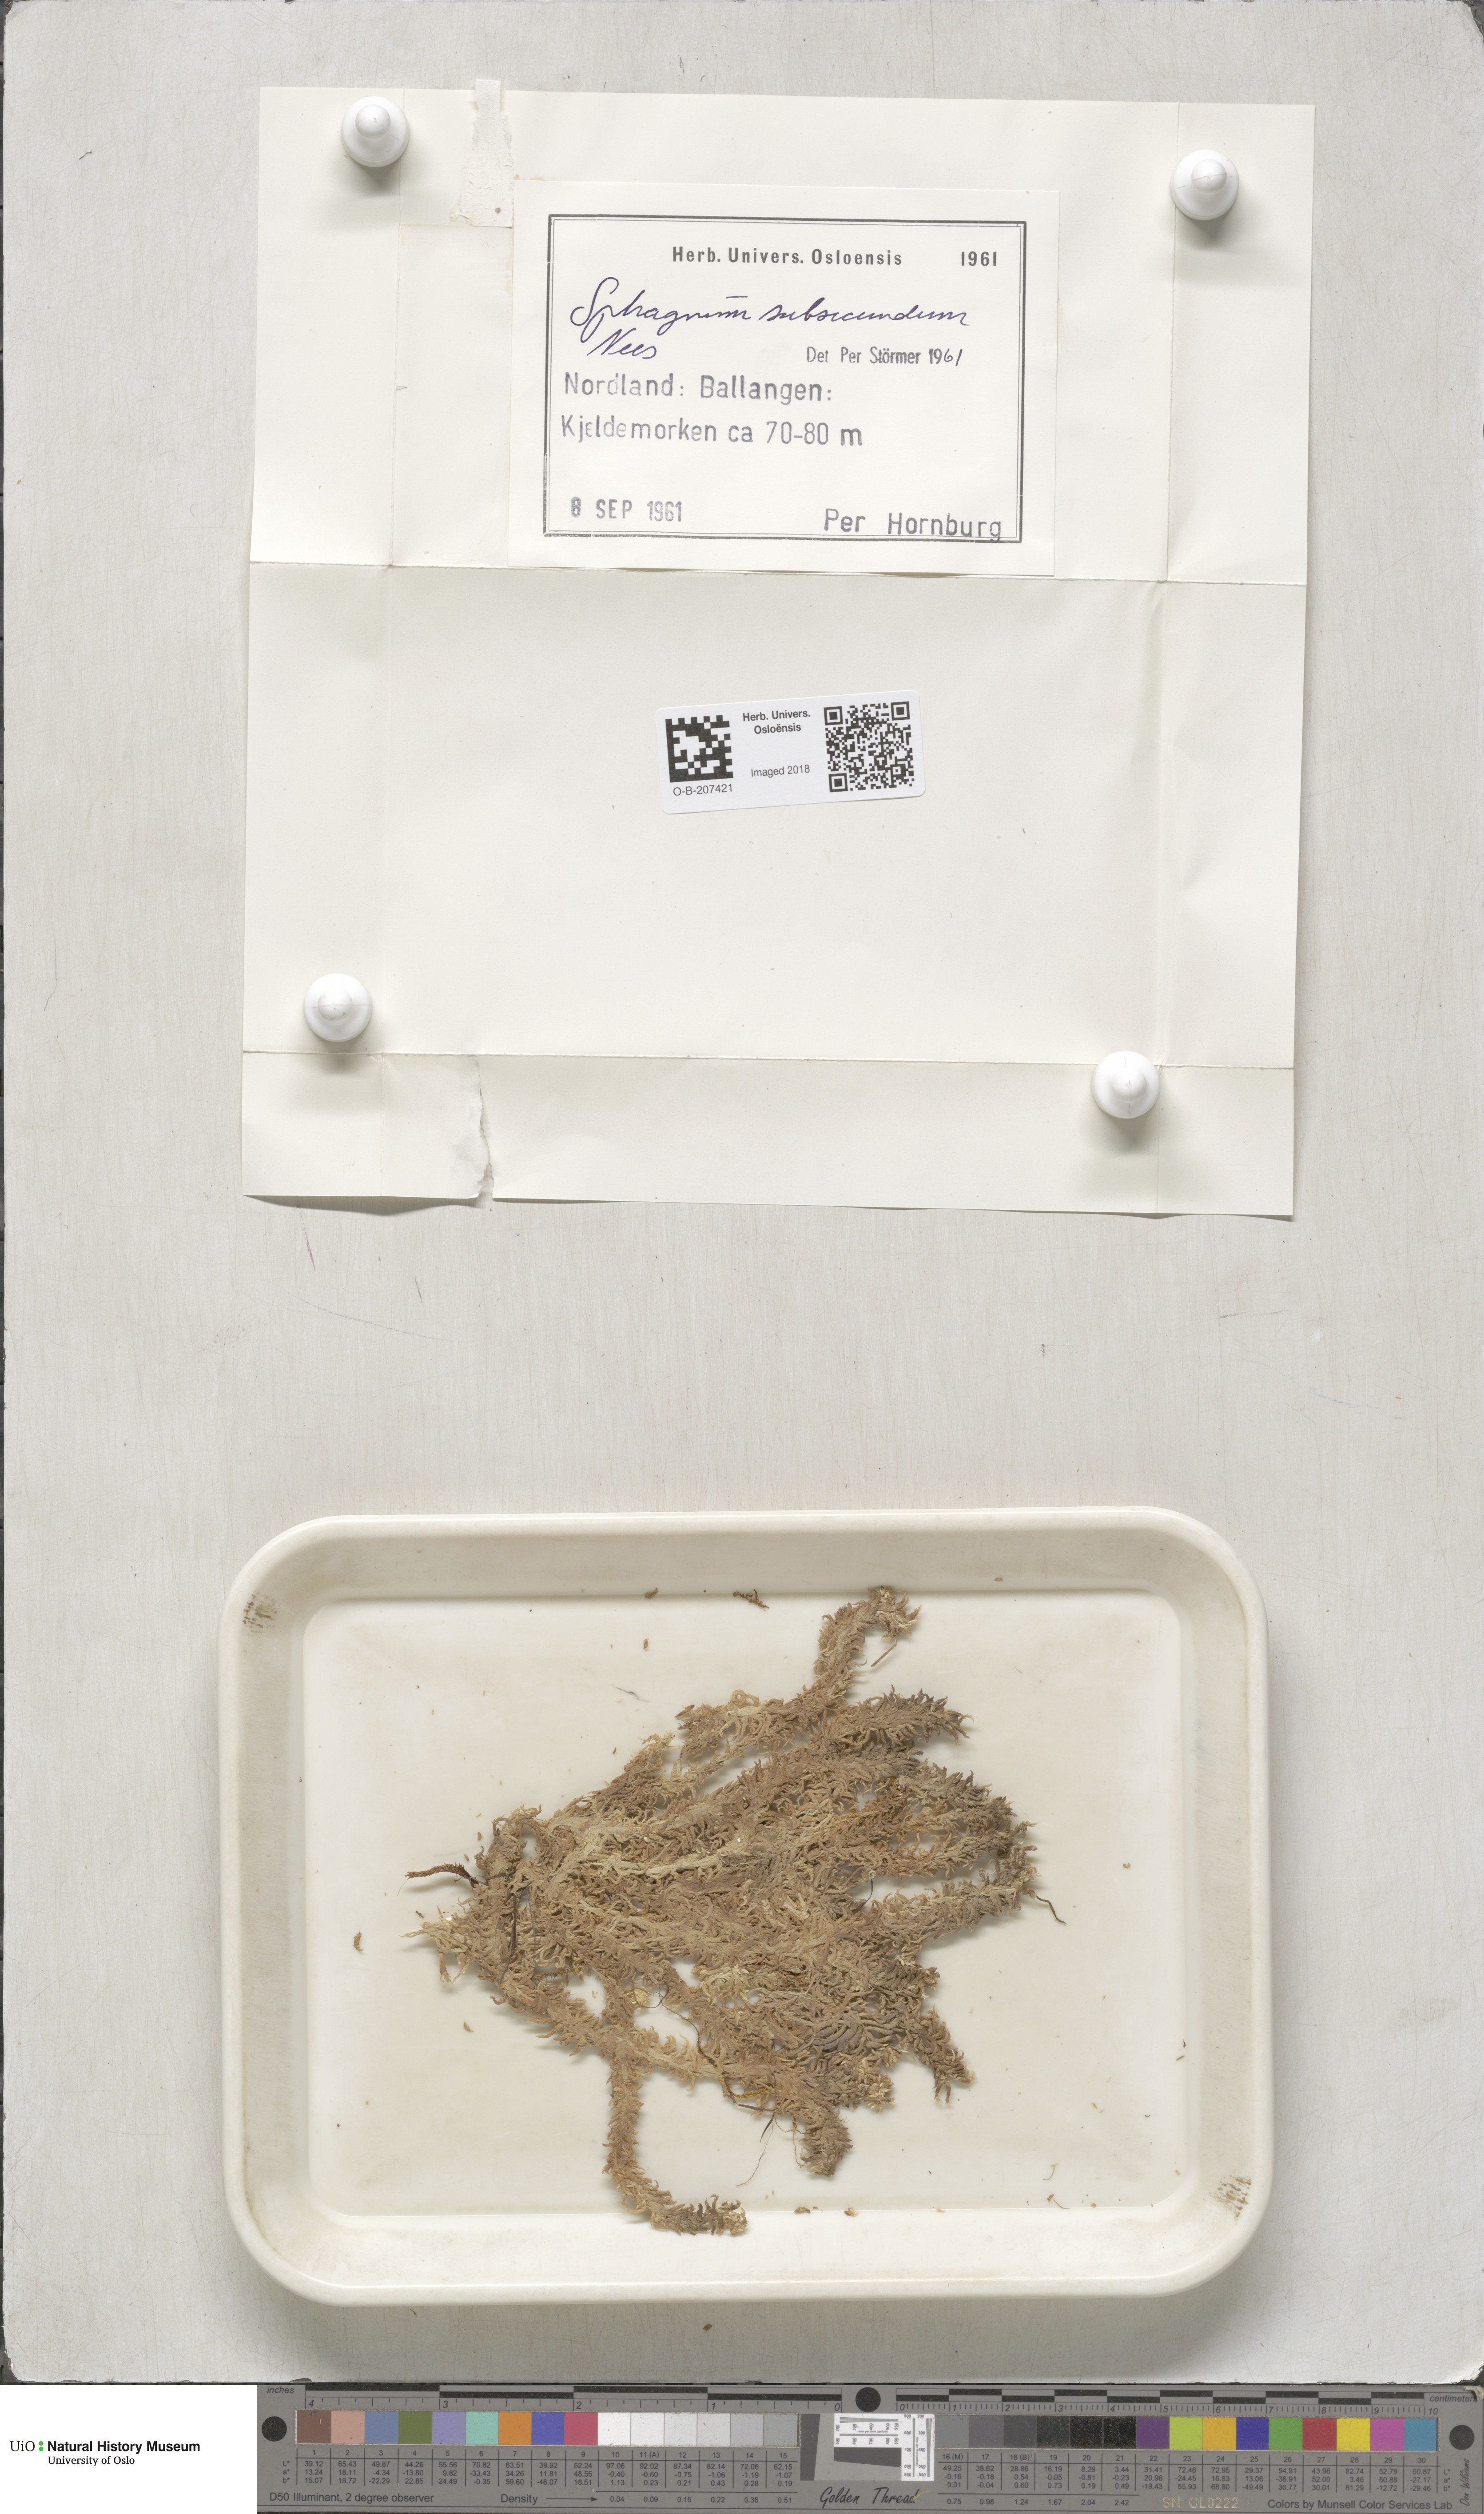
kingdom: Plantae
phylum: Bryophyta
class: Sphagnopsida
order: Sphagnales
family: Sphagnaceae
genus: Sphagnum
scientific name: Sphagnum subsecundum
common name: Orange peat moss
